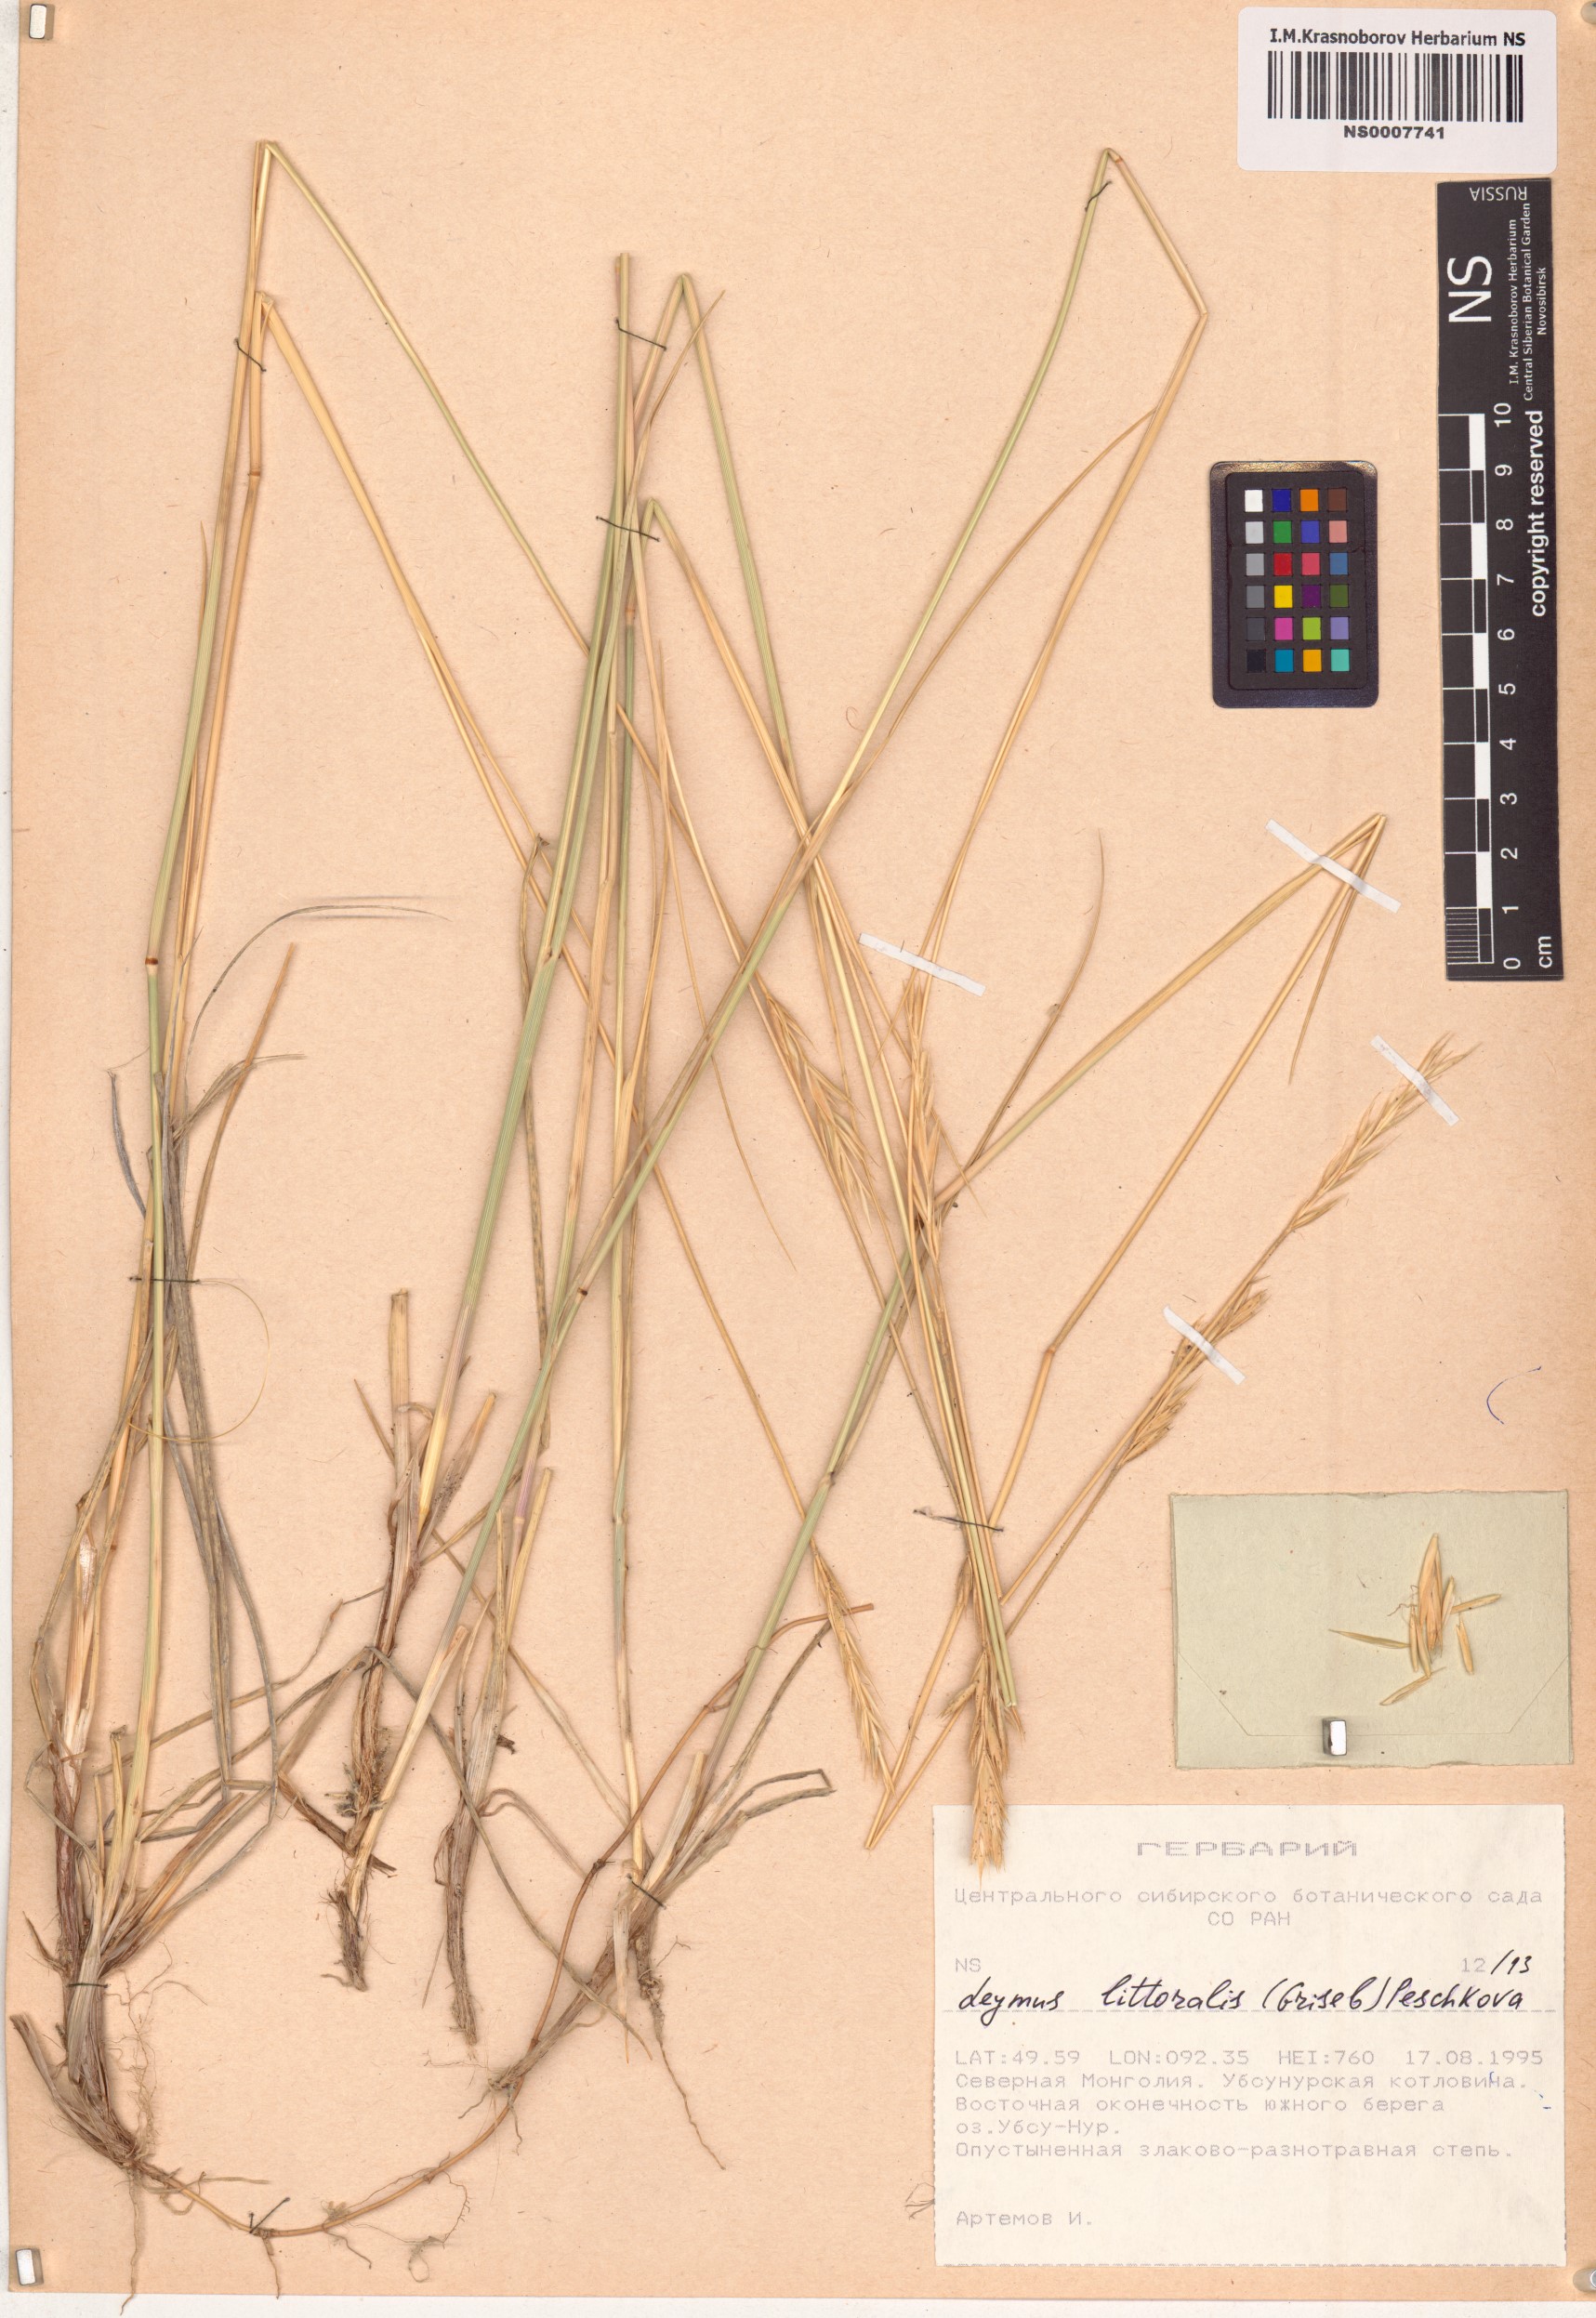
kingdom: Plantae
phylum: Tracheophyta
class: Liliopsida
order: Poales
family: Poaceae
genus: Leymus
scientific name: Leymus secalinus
